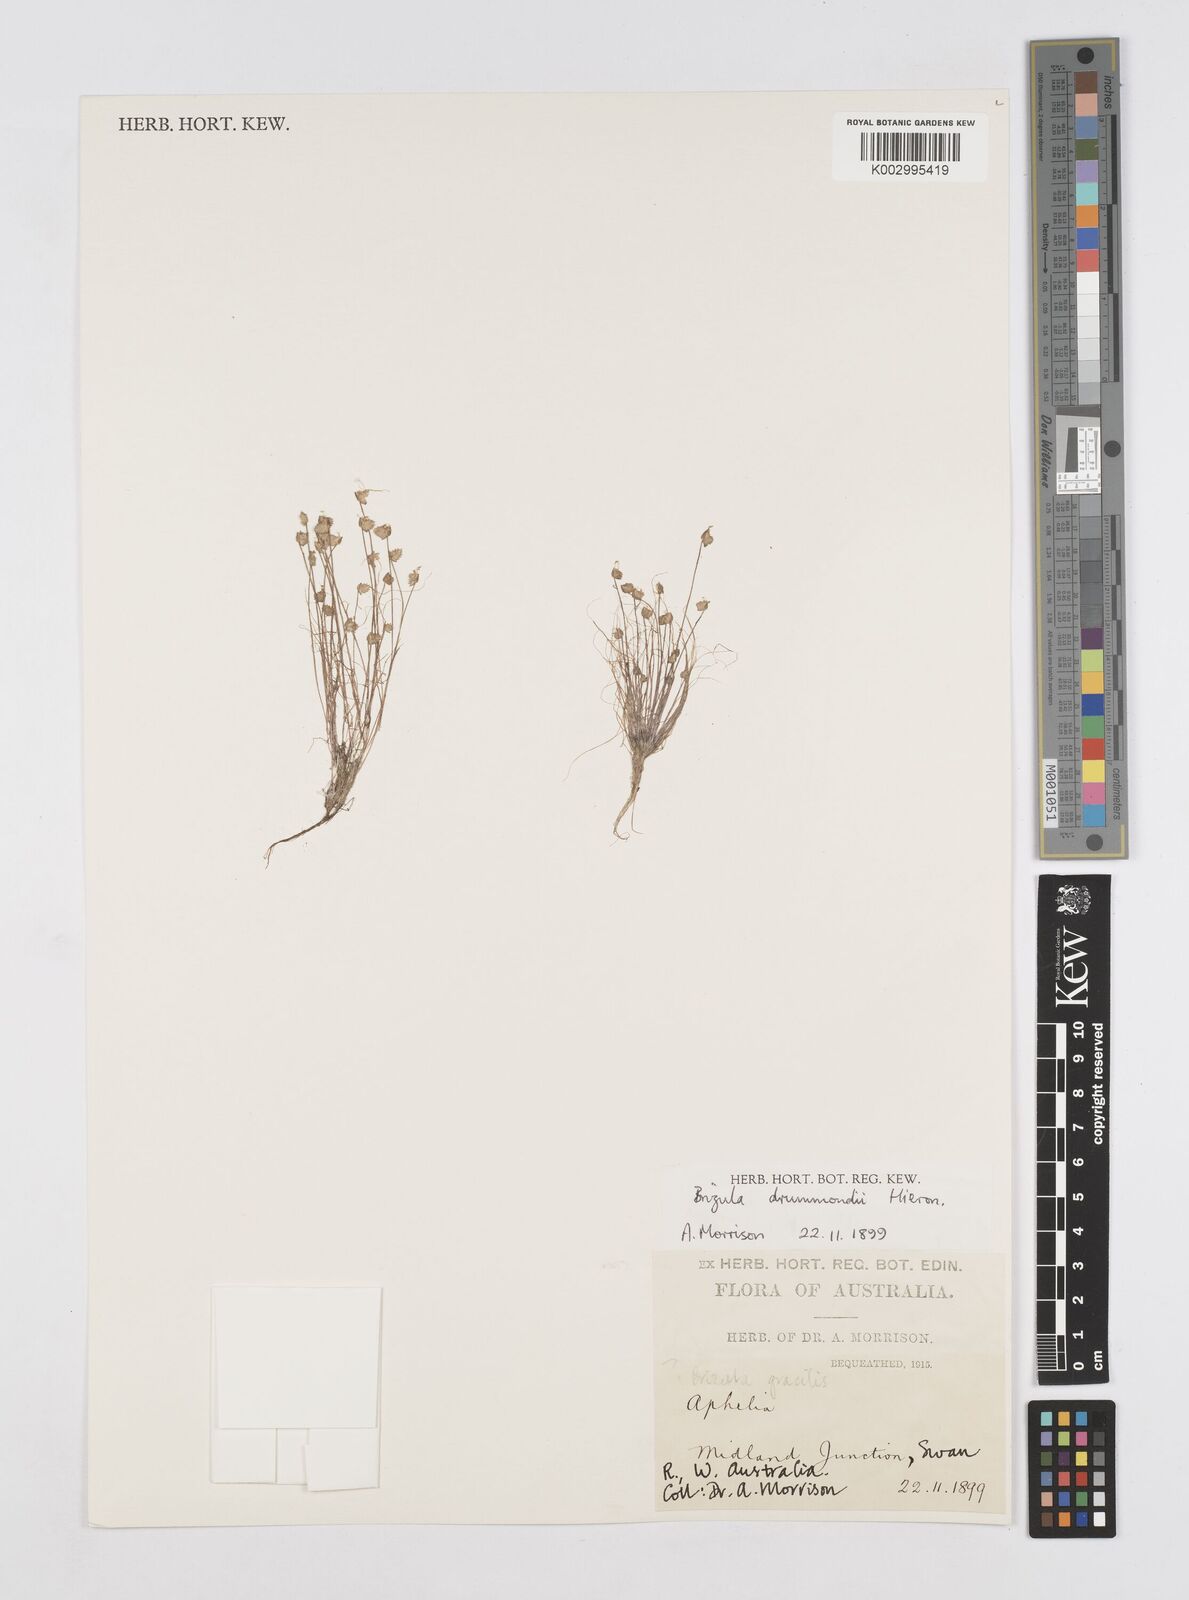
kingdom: Plantae
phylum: Tracheophyta
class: Liliopsida
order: Poales
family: Restionaceae
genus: Aphelia
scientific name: Aphelia drummondii
